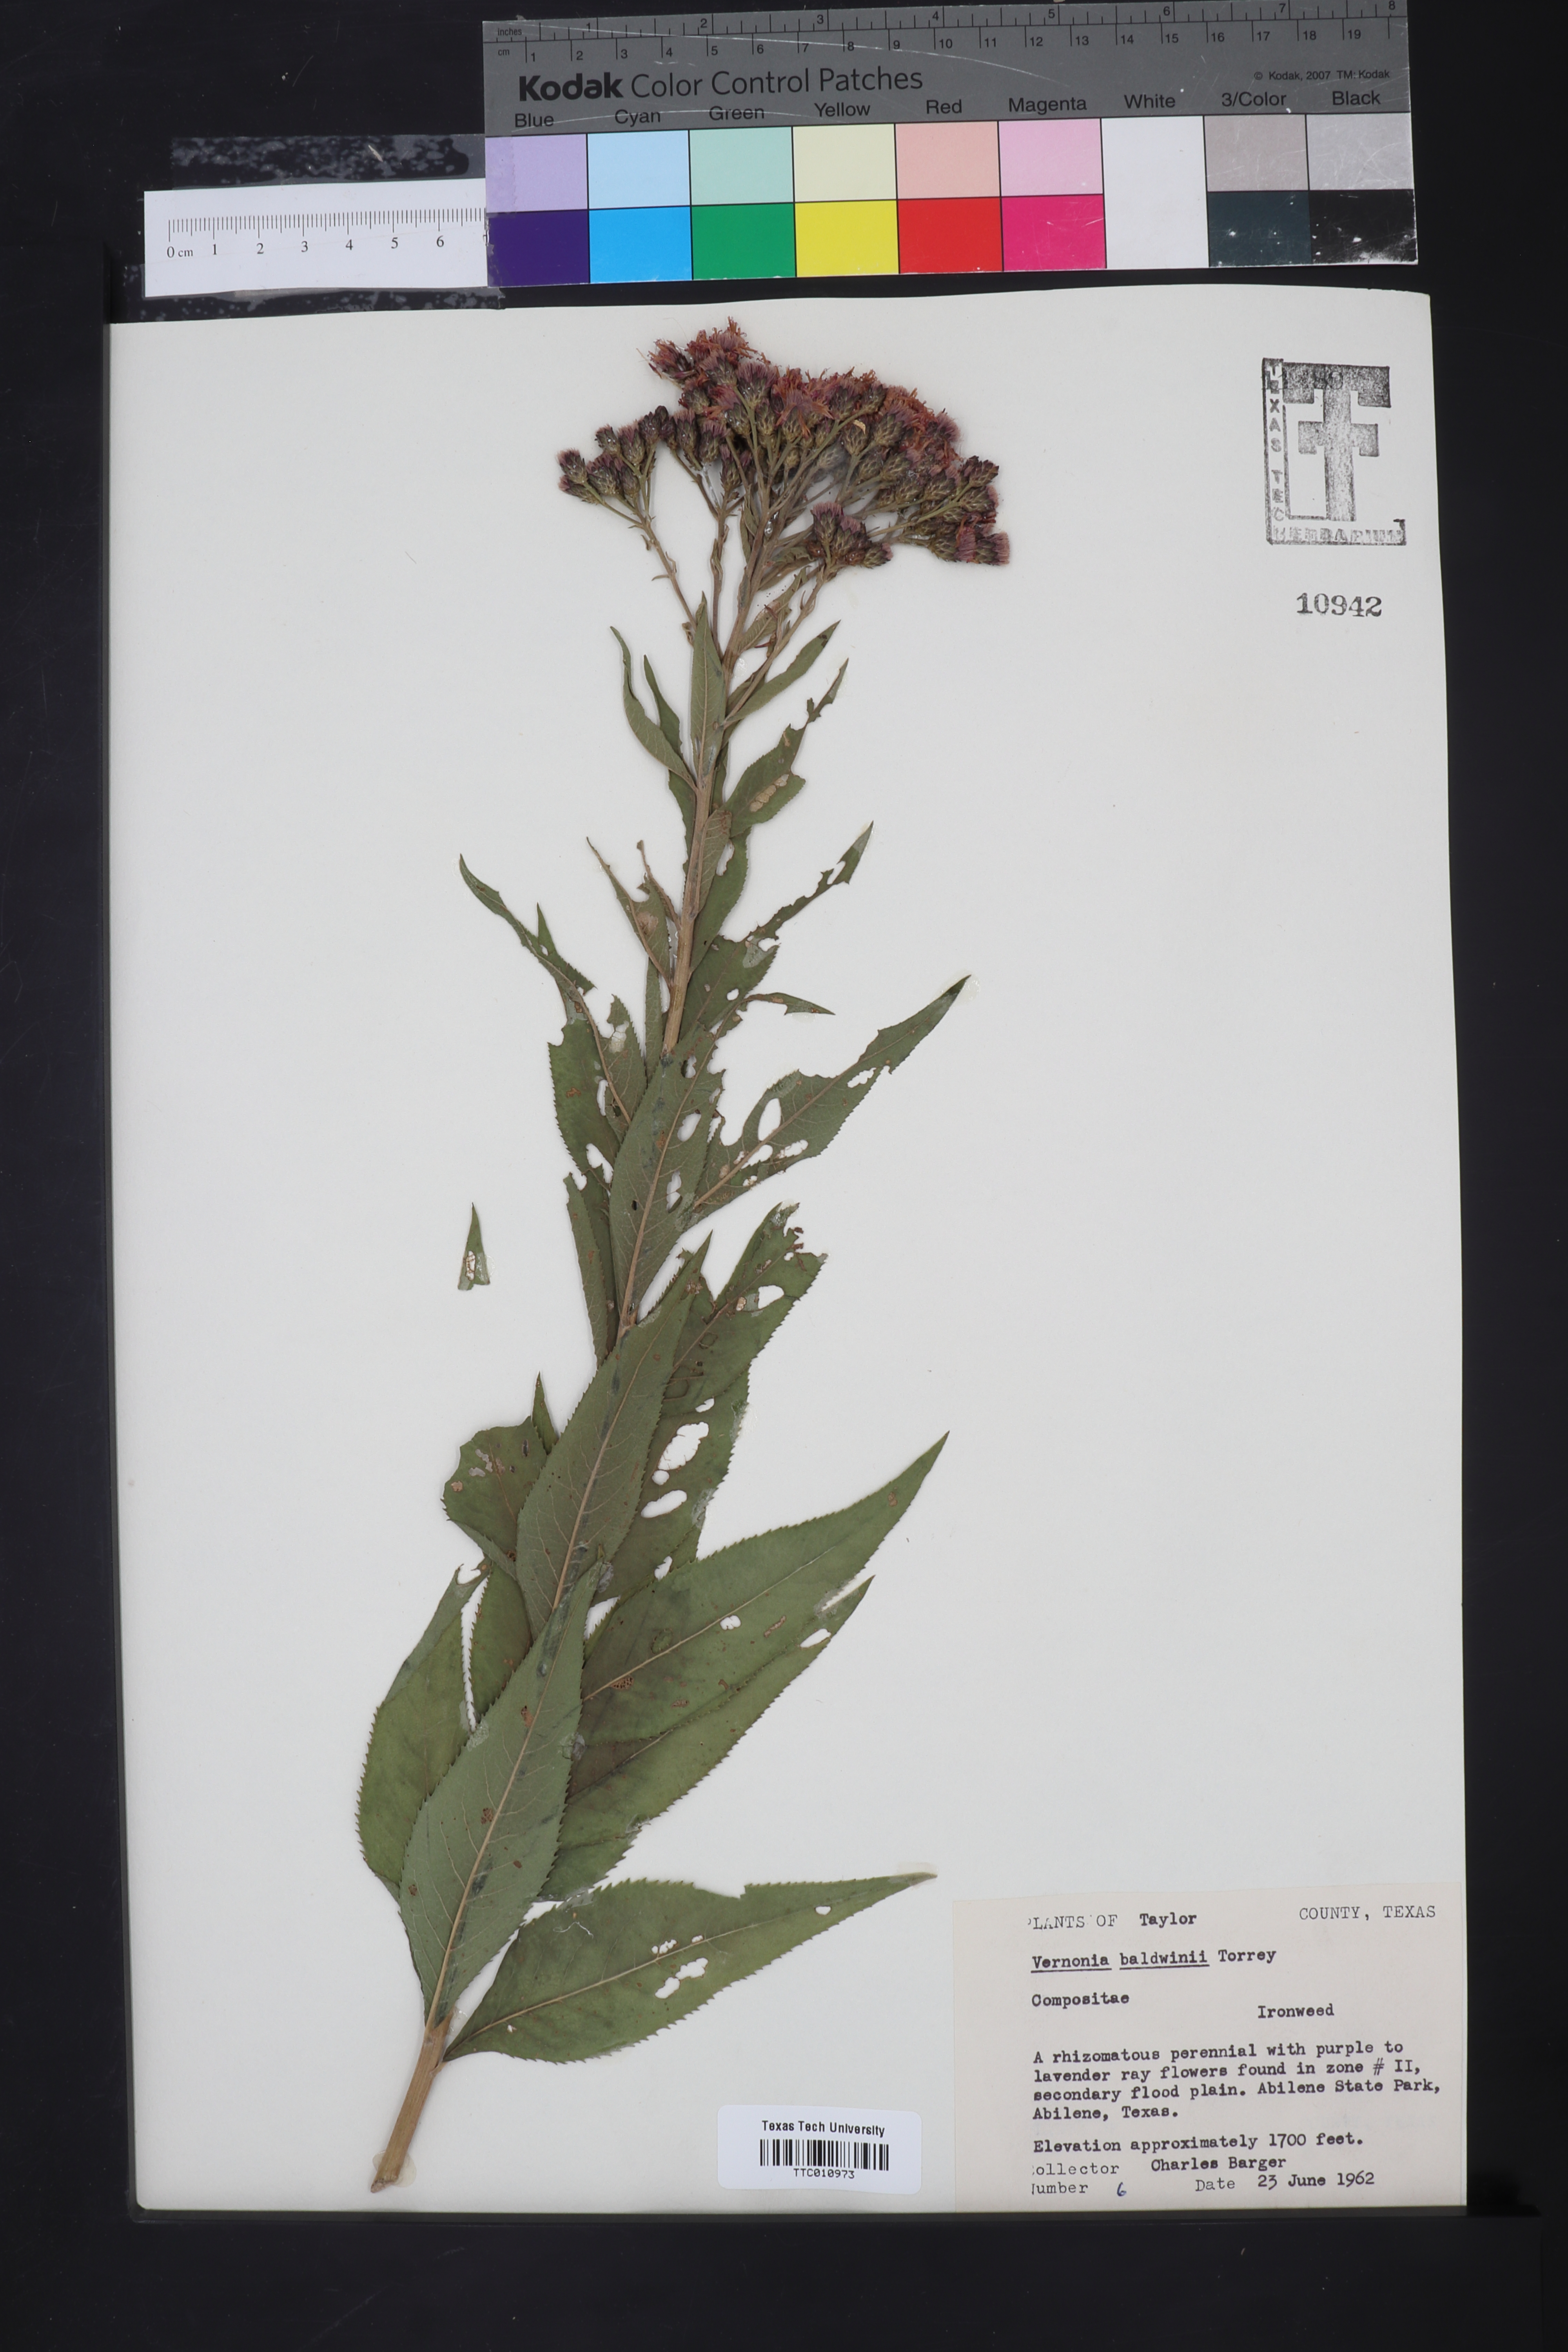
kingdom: Plantae
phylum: Tracheophyta
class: Magnoliopsida
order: Asterales
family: Asteraceae
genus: Vernonia
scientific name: Vernonia baldwinii
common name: Western ironweed
